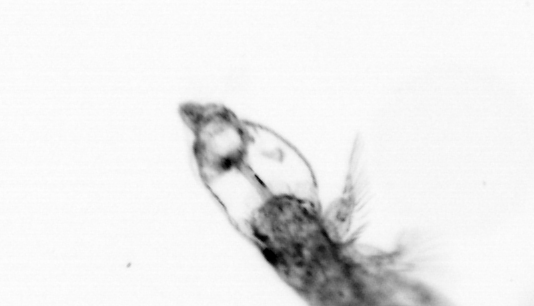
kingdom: Animalia
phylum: Arthropoda
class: Copepoda
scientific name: Copepoda
